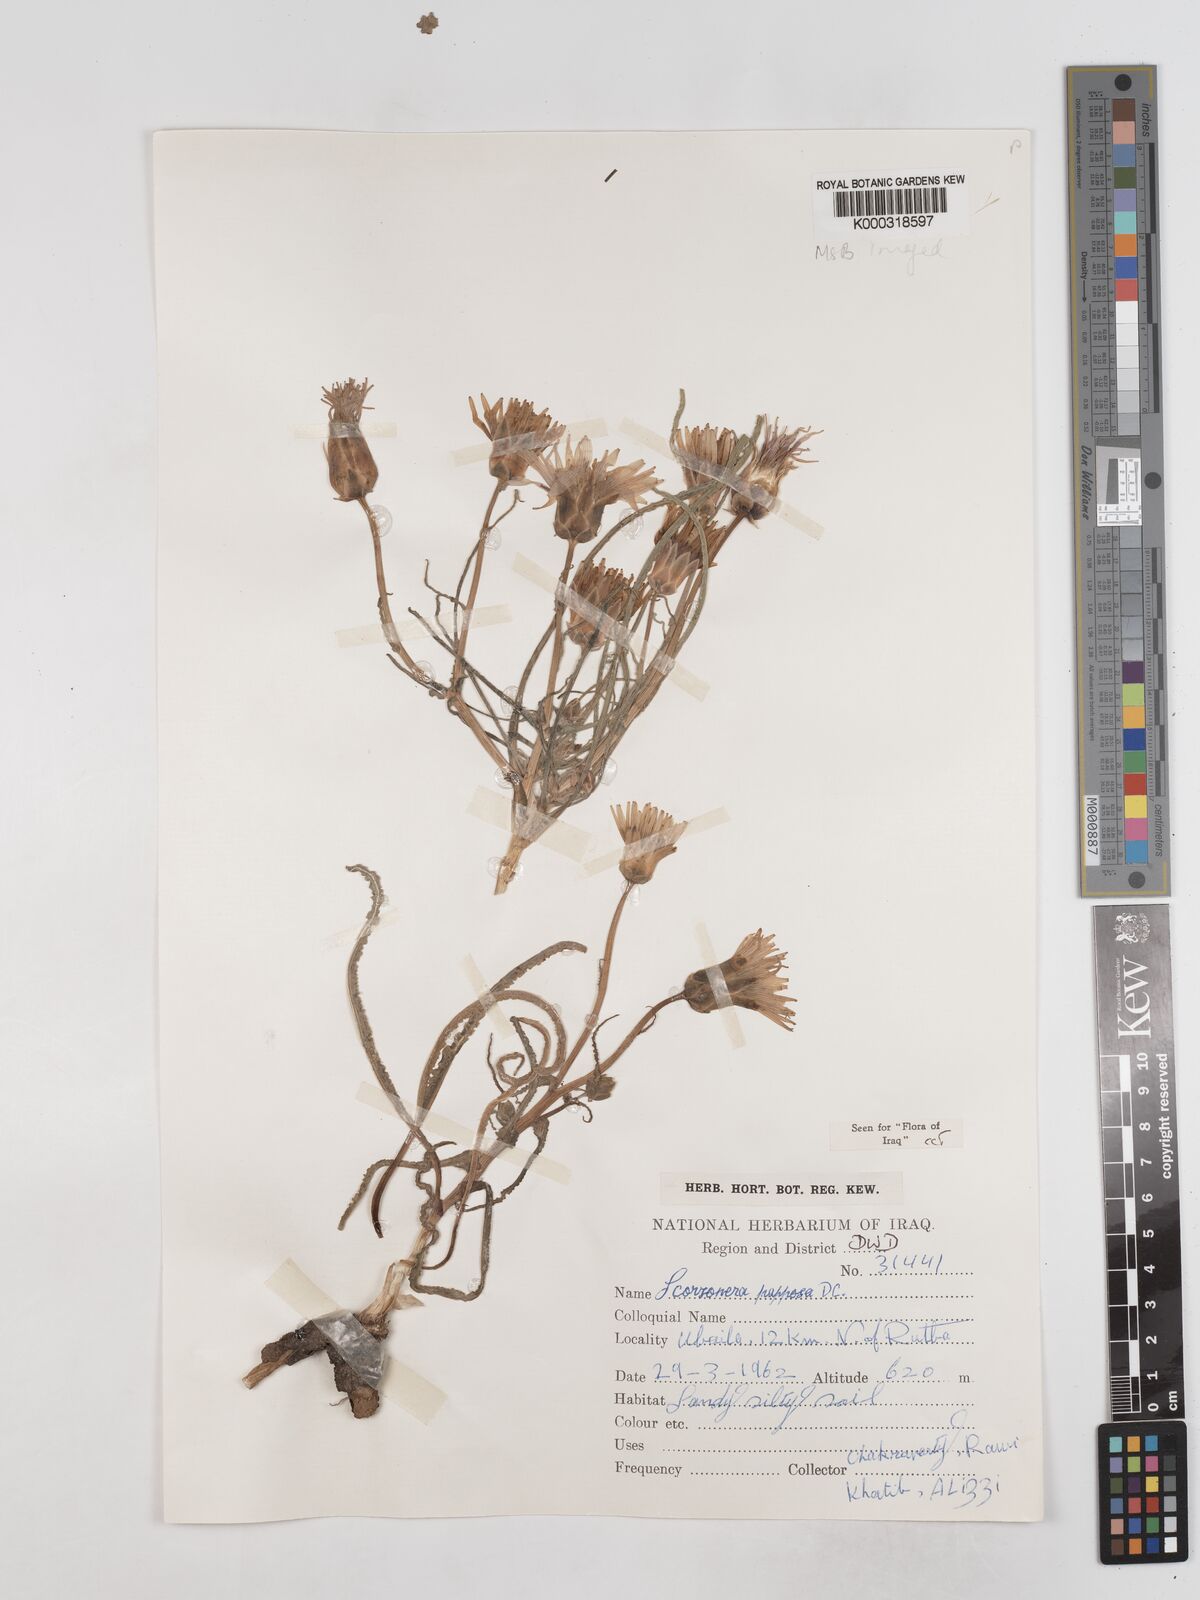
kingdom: Plantae
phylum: Tracheophyta
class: Magnoliopsida
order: Asterales
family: Asteraceae
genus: Pseudopodospermum
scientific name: Pseudopodospermum papposum
